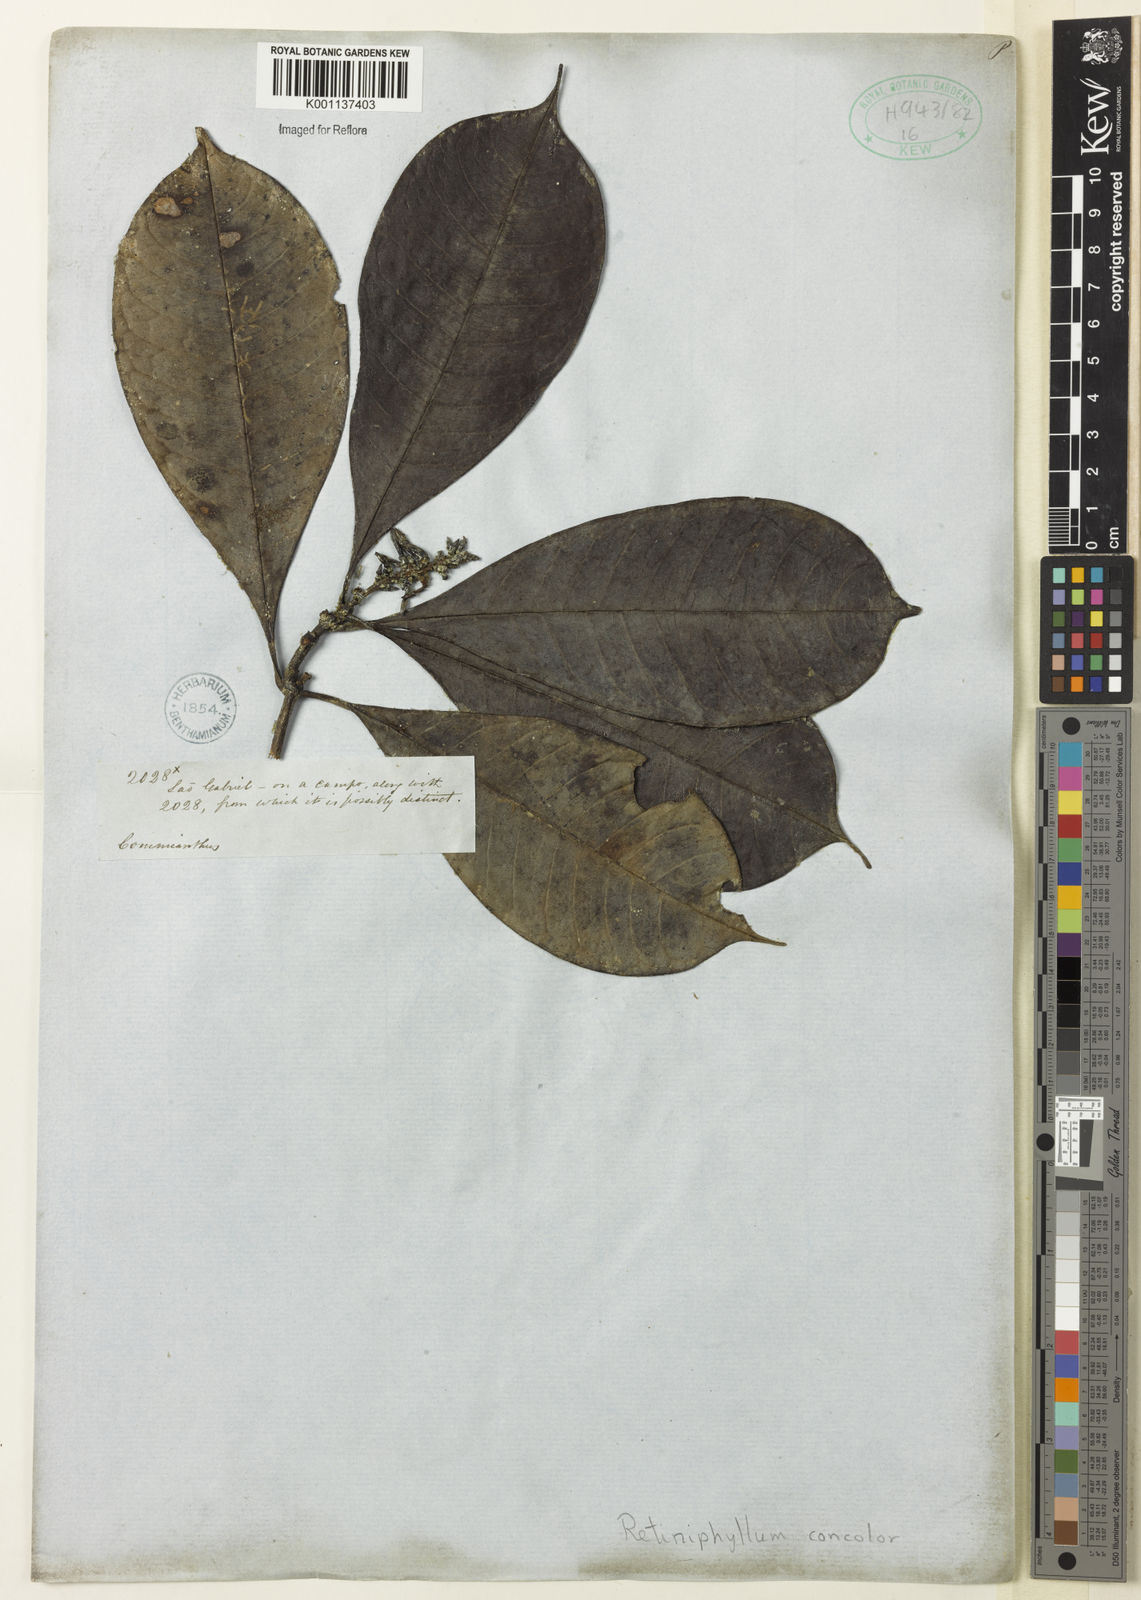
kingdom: Plantae
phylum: Tracheophyta
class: Magnoliopsida
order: Gentianales
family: Rubiaceae
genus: Retiniphyllum
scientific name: Retiniphyllum
